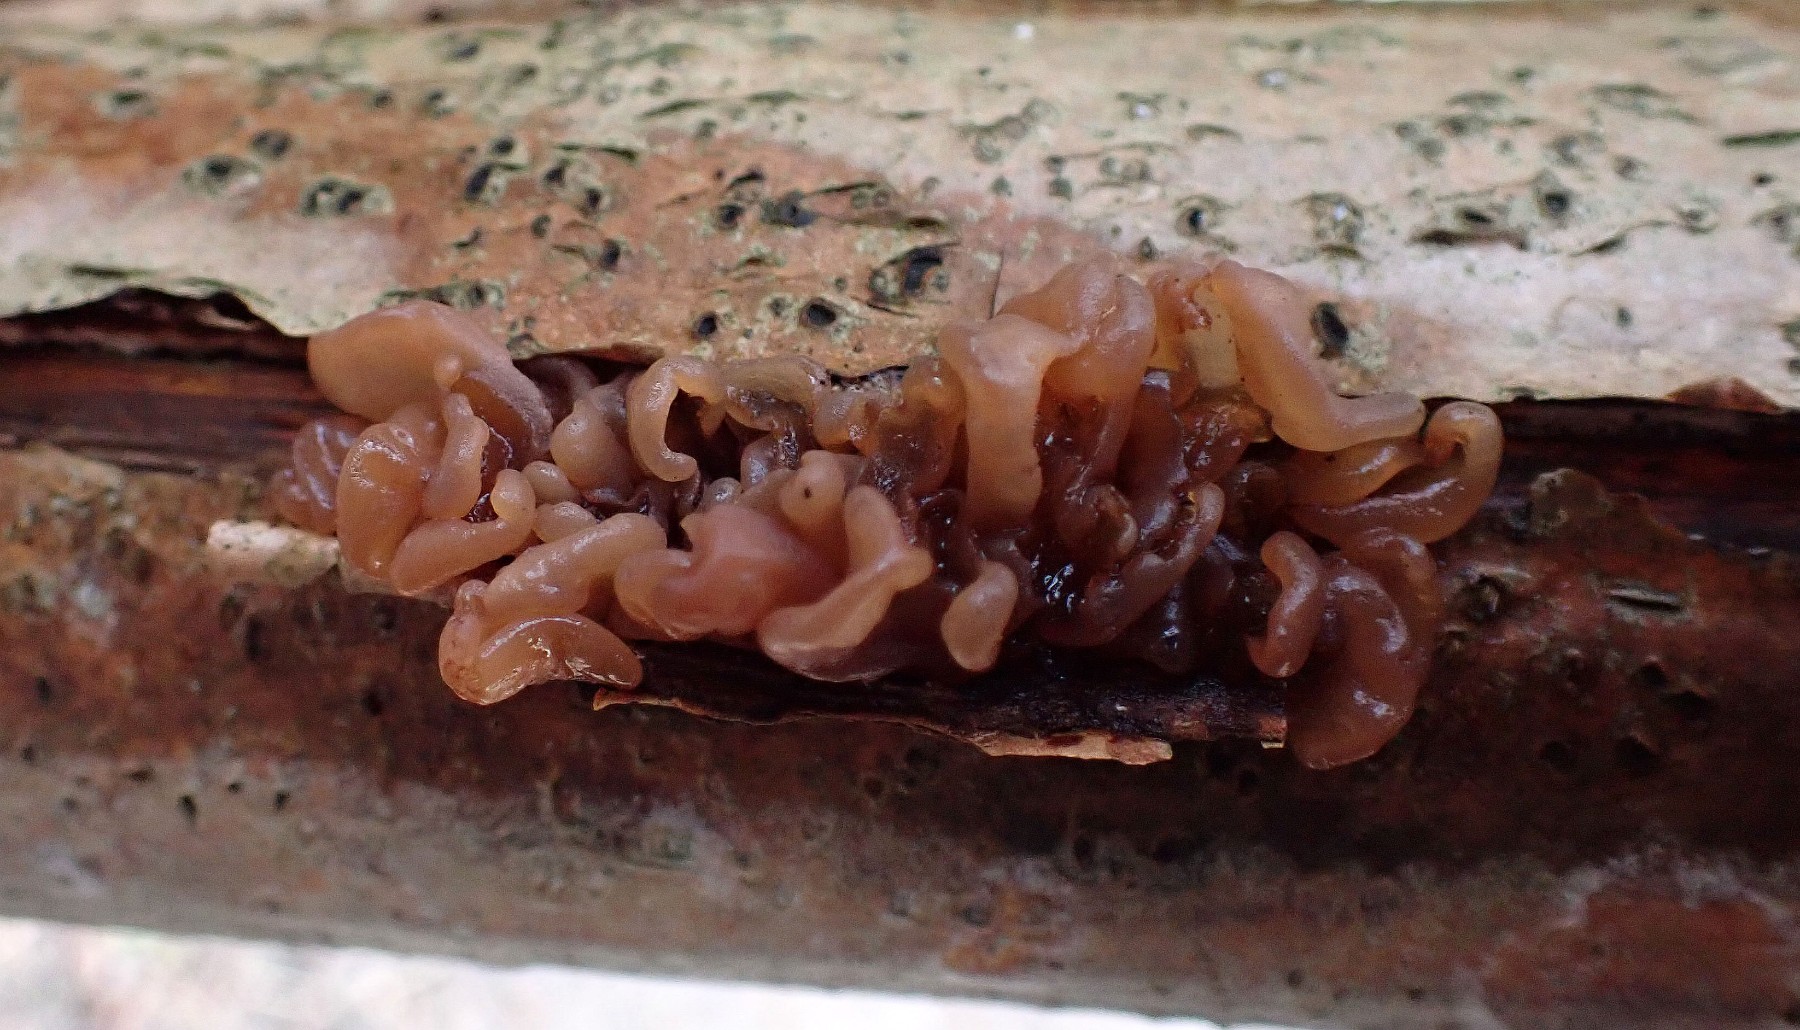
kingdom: Fungi
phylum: Basidiomycota
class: Tremellomycetes
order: Tremellales
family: Tremellaceae
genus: Phaeotremella
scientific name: Phaeotremella frondosa
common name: kæmpe-bævresvamp
